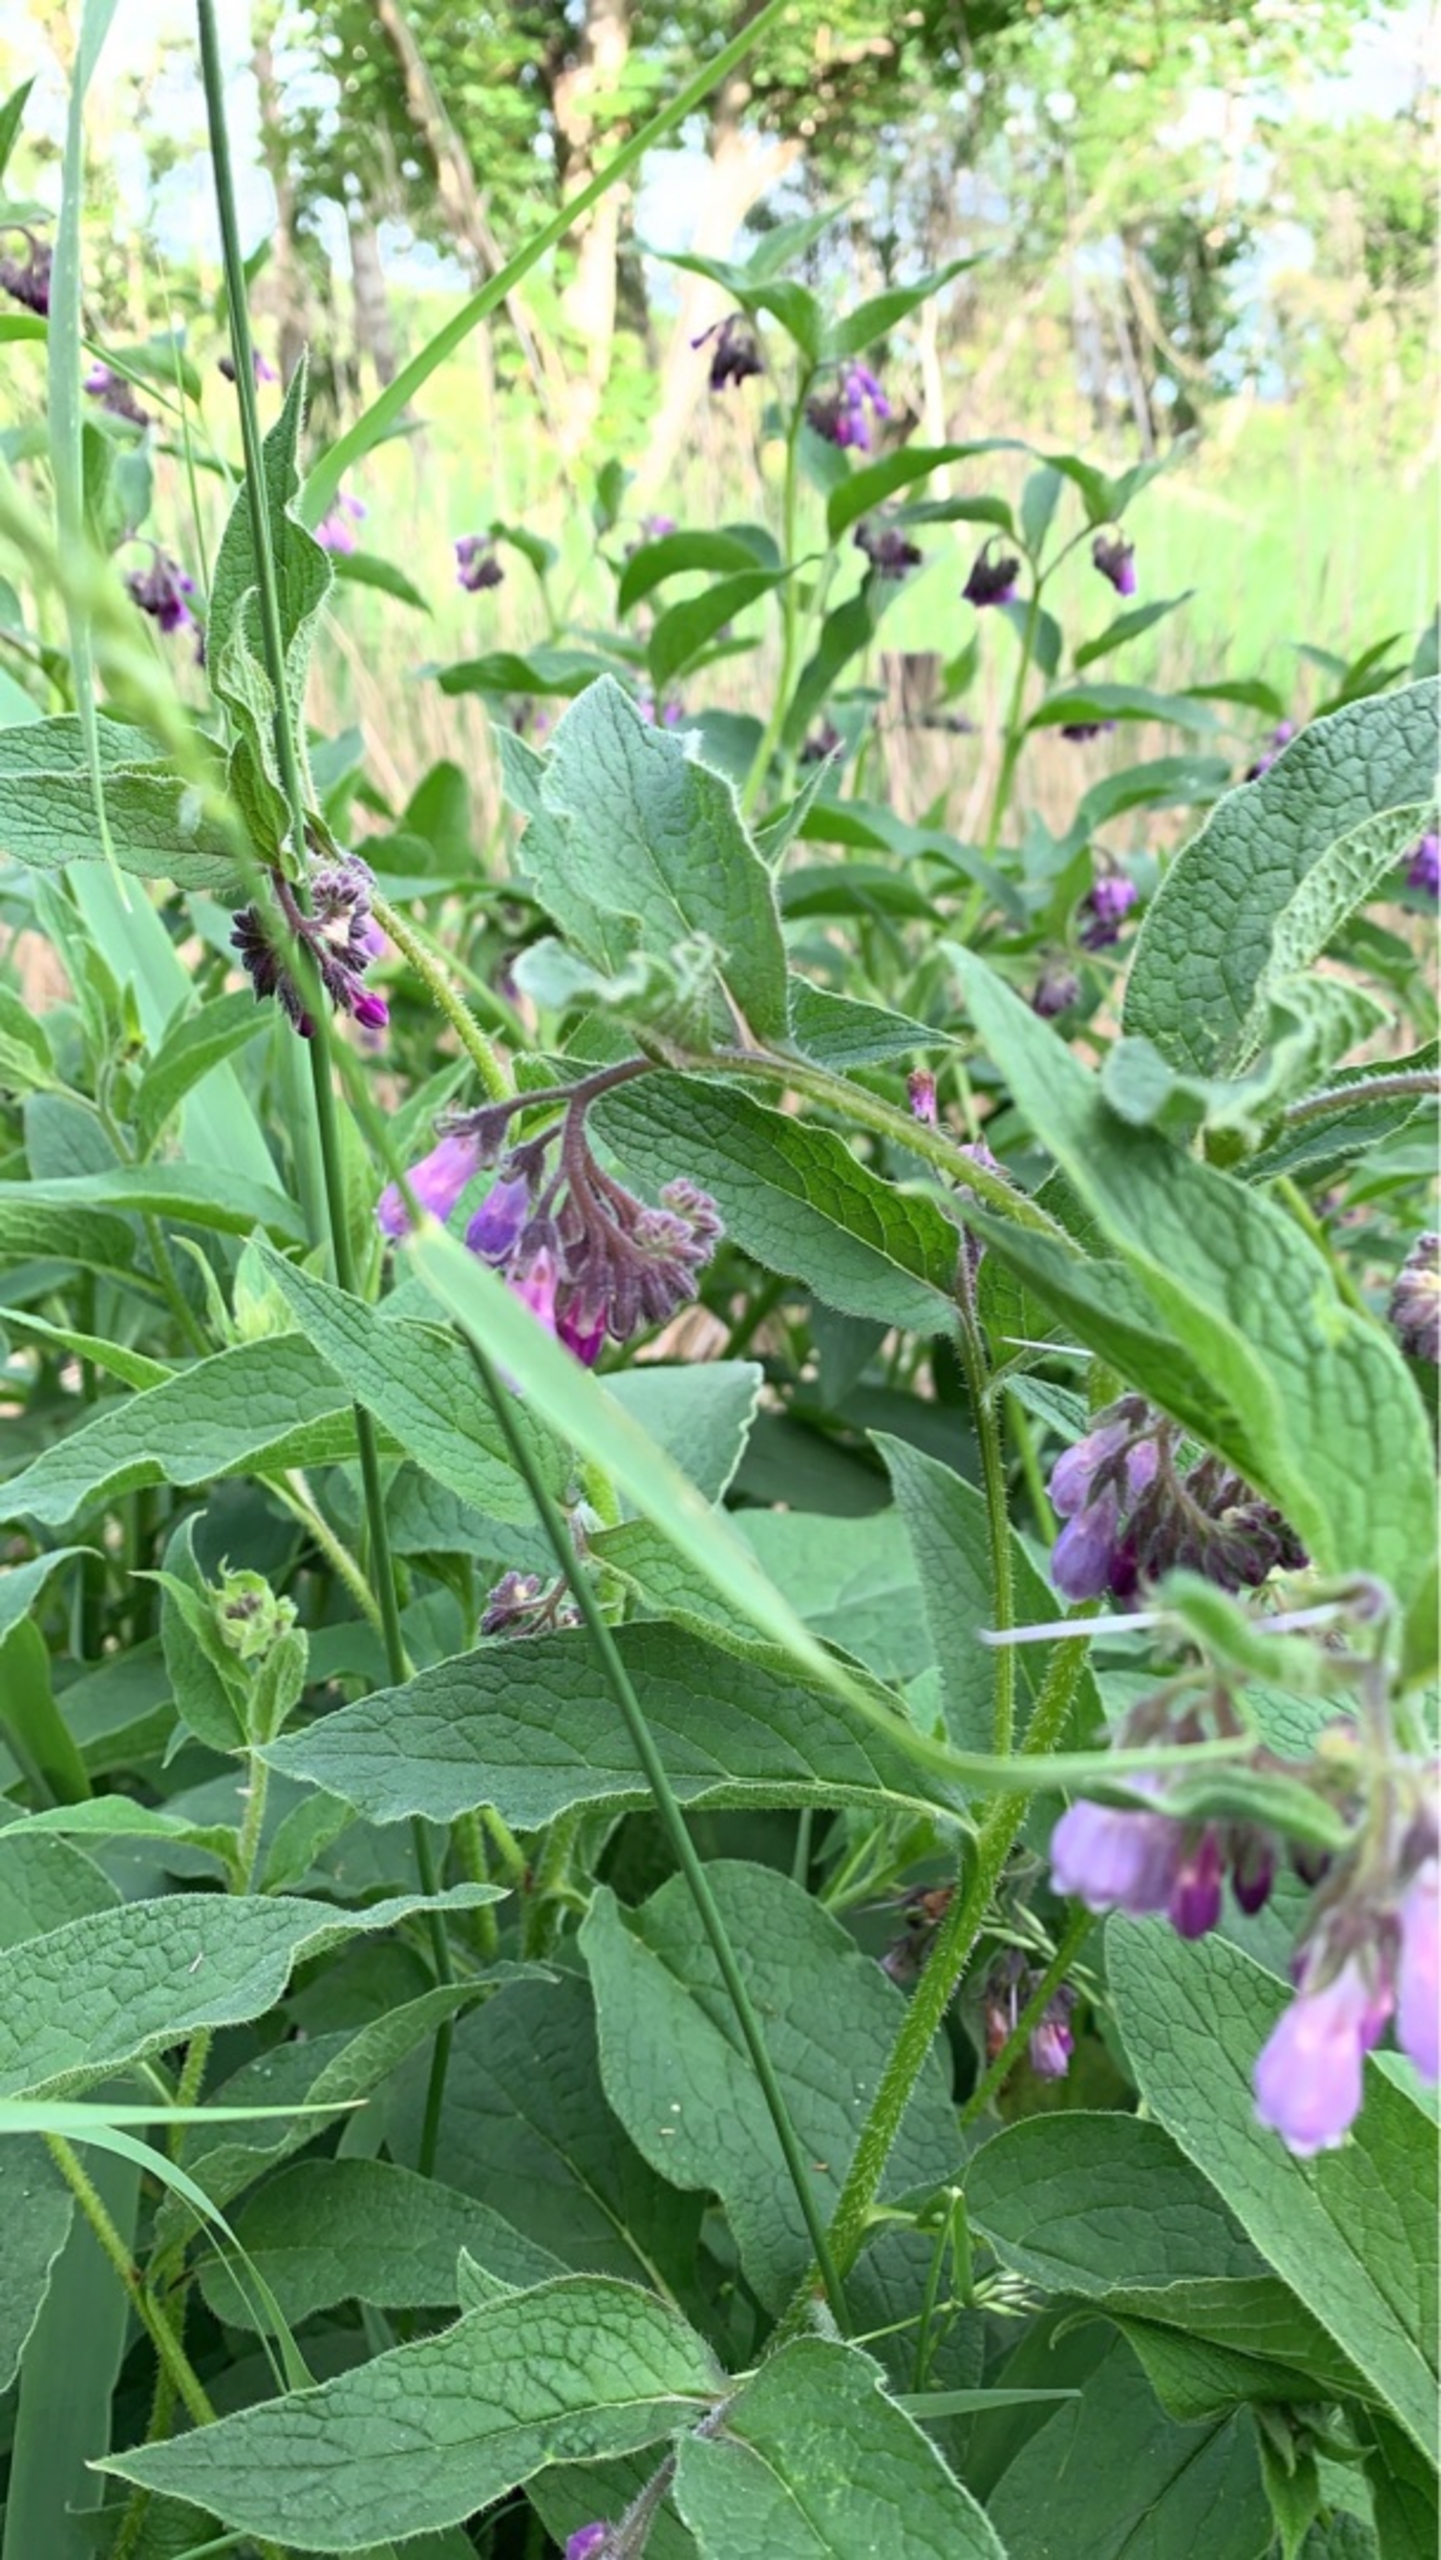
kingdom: Plantae
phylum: Tracheophyta
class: Magnoliopsida
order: Boraginales
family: Boraginaceae
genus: Symphytum
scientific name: Symphytum uplandicum
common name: Foder-kulsukker
